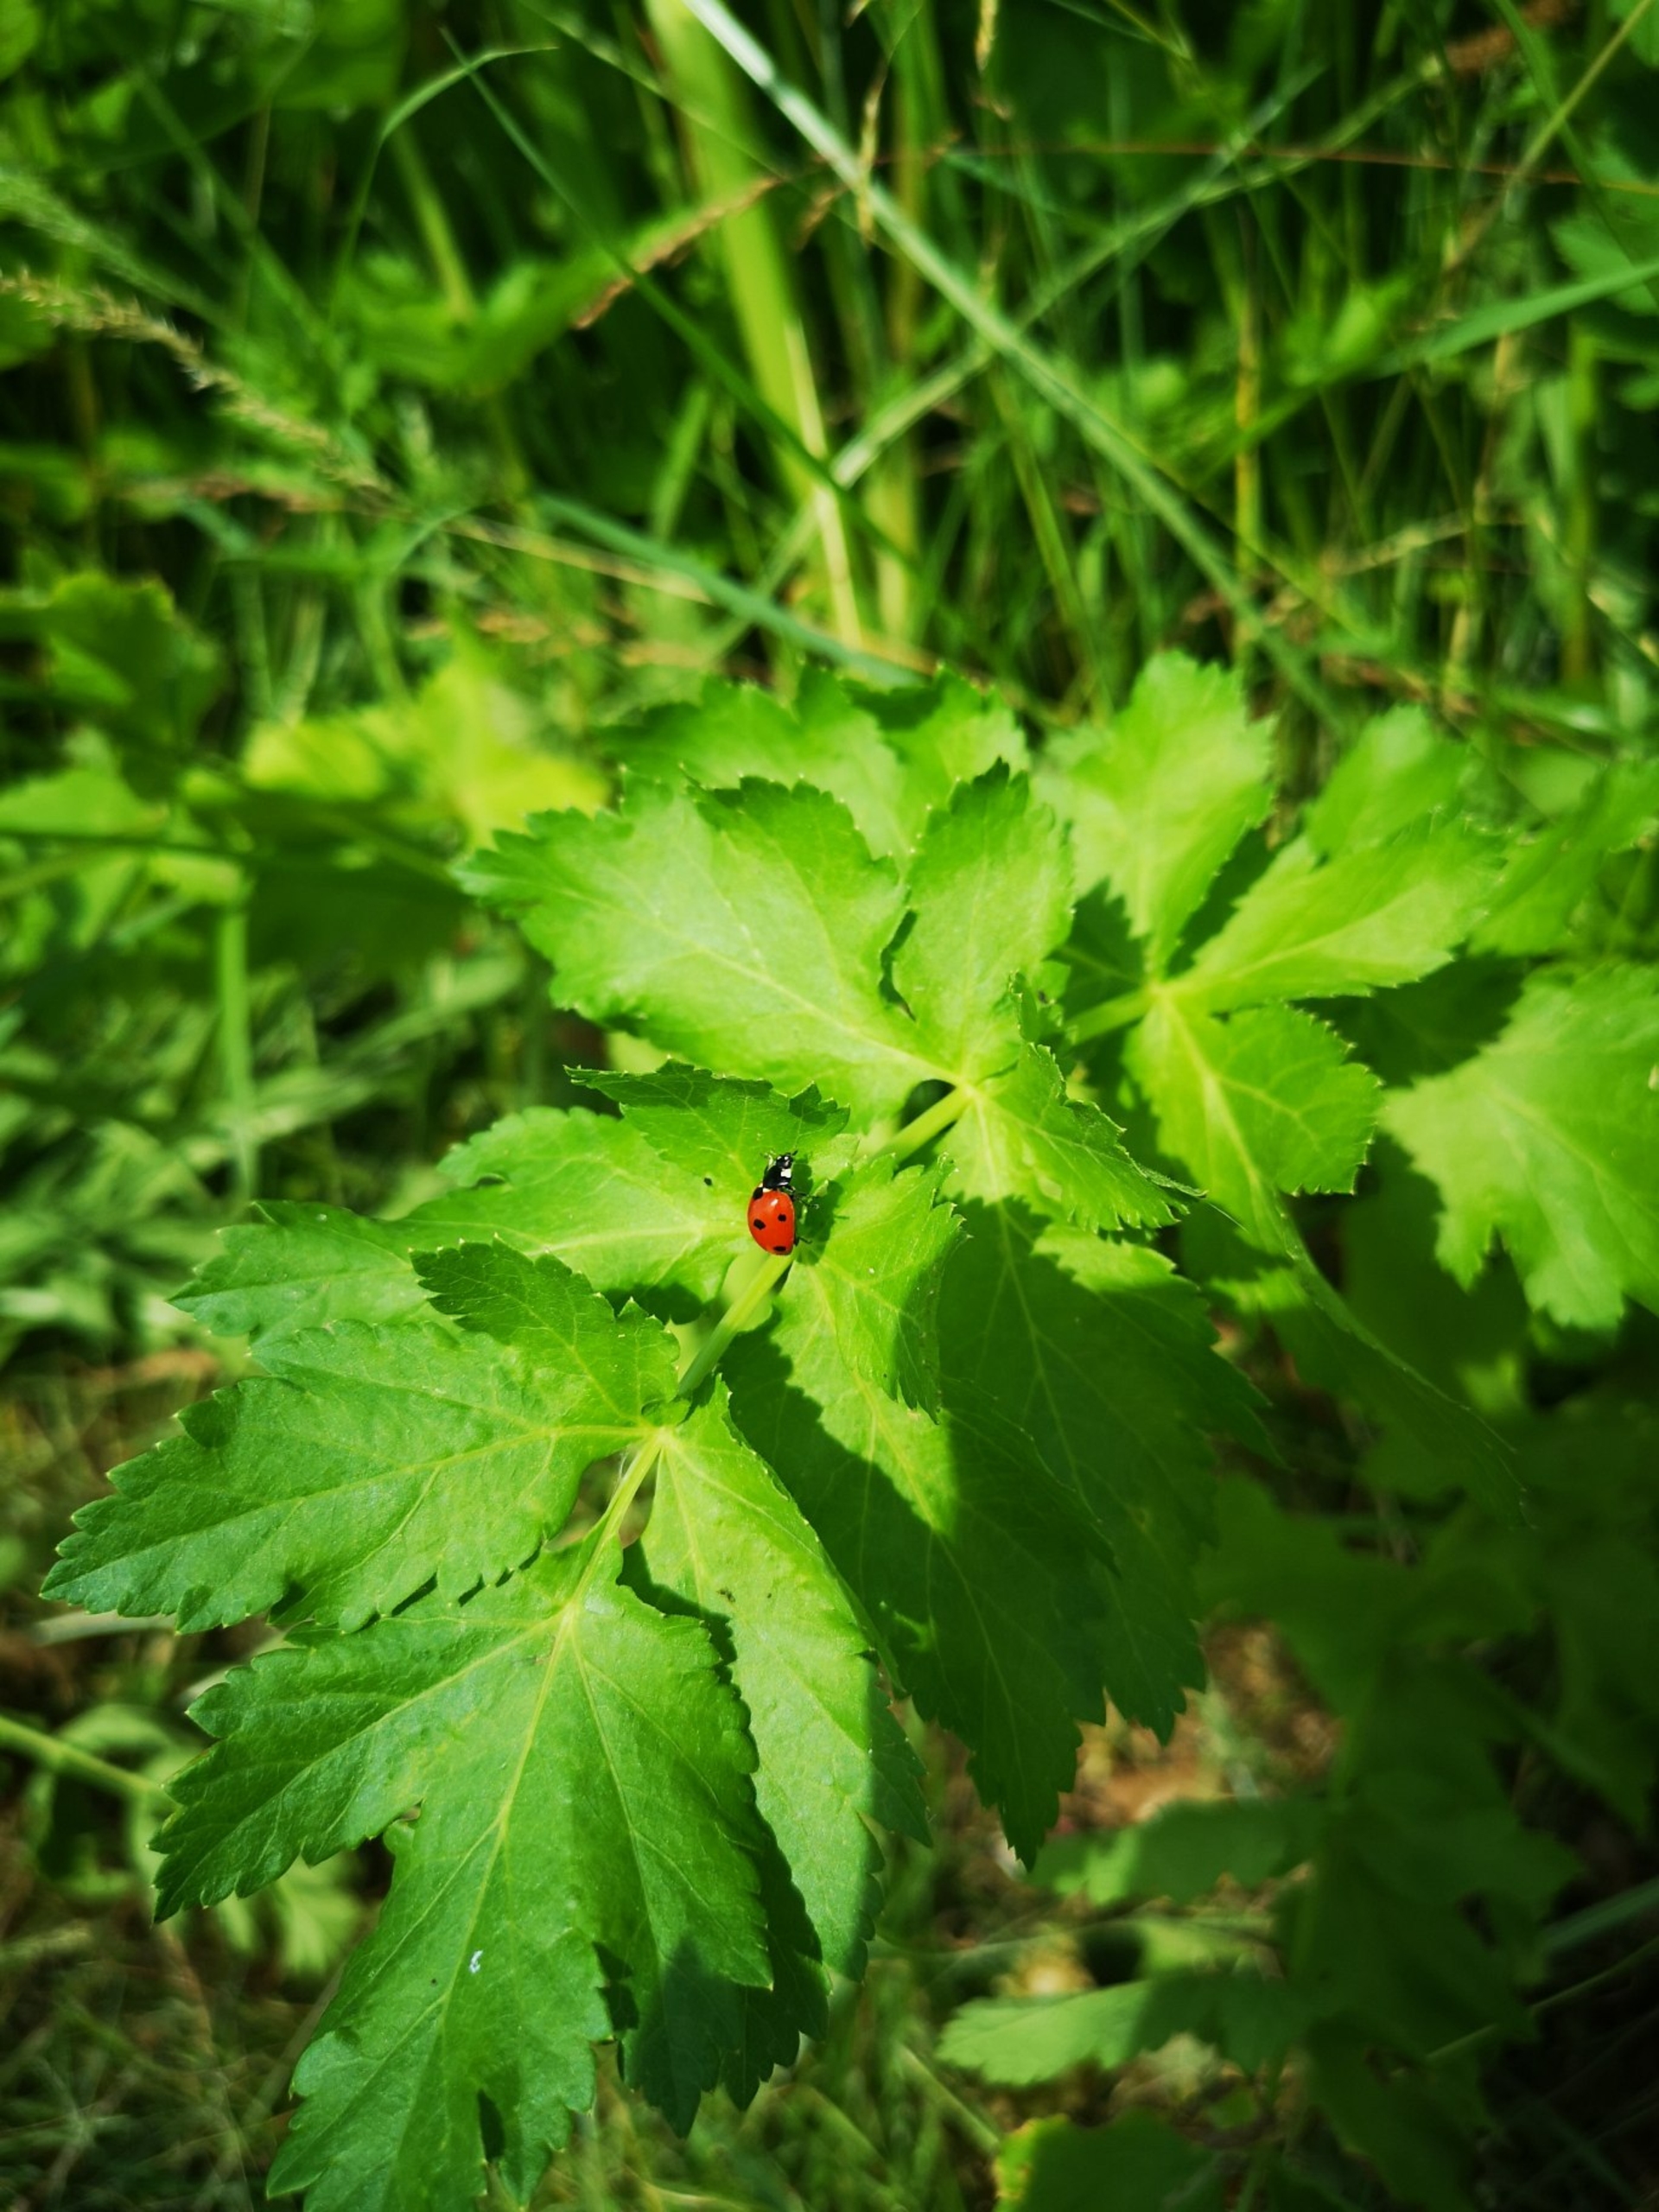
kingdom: Animalia
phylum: Arthropoda
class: Insecta
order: Coleoptera
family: Coccinellidae
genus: Coccinella
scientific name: Coccinella septempunctata
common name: Syvplettet mariehøne
